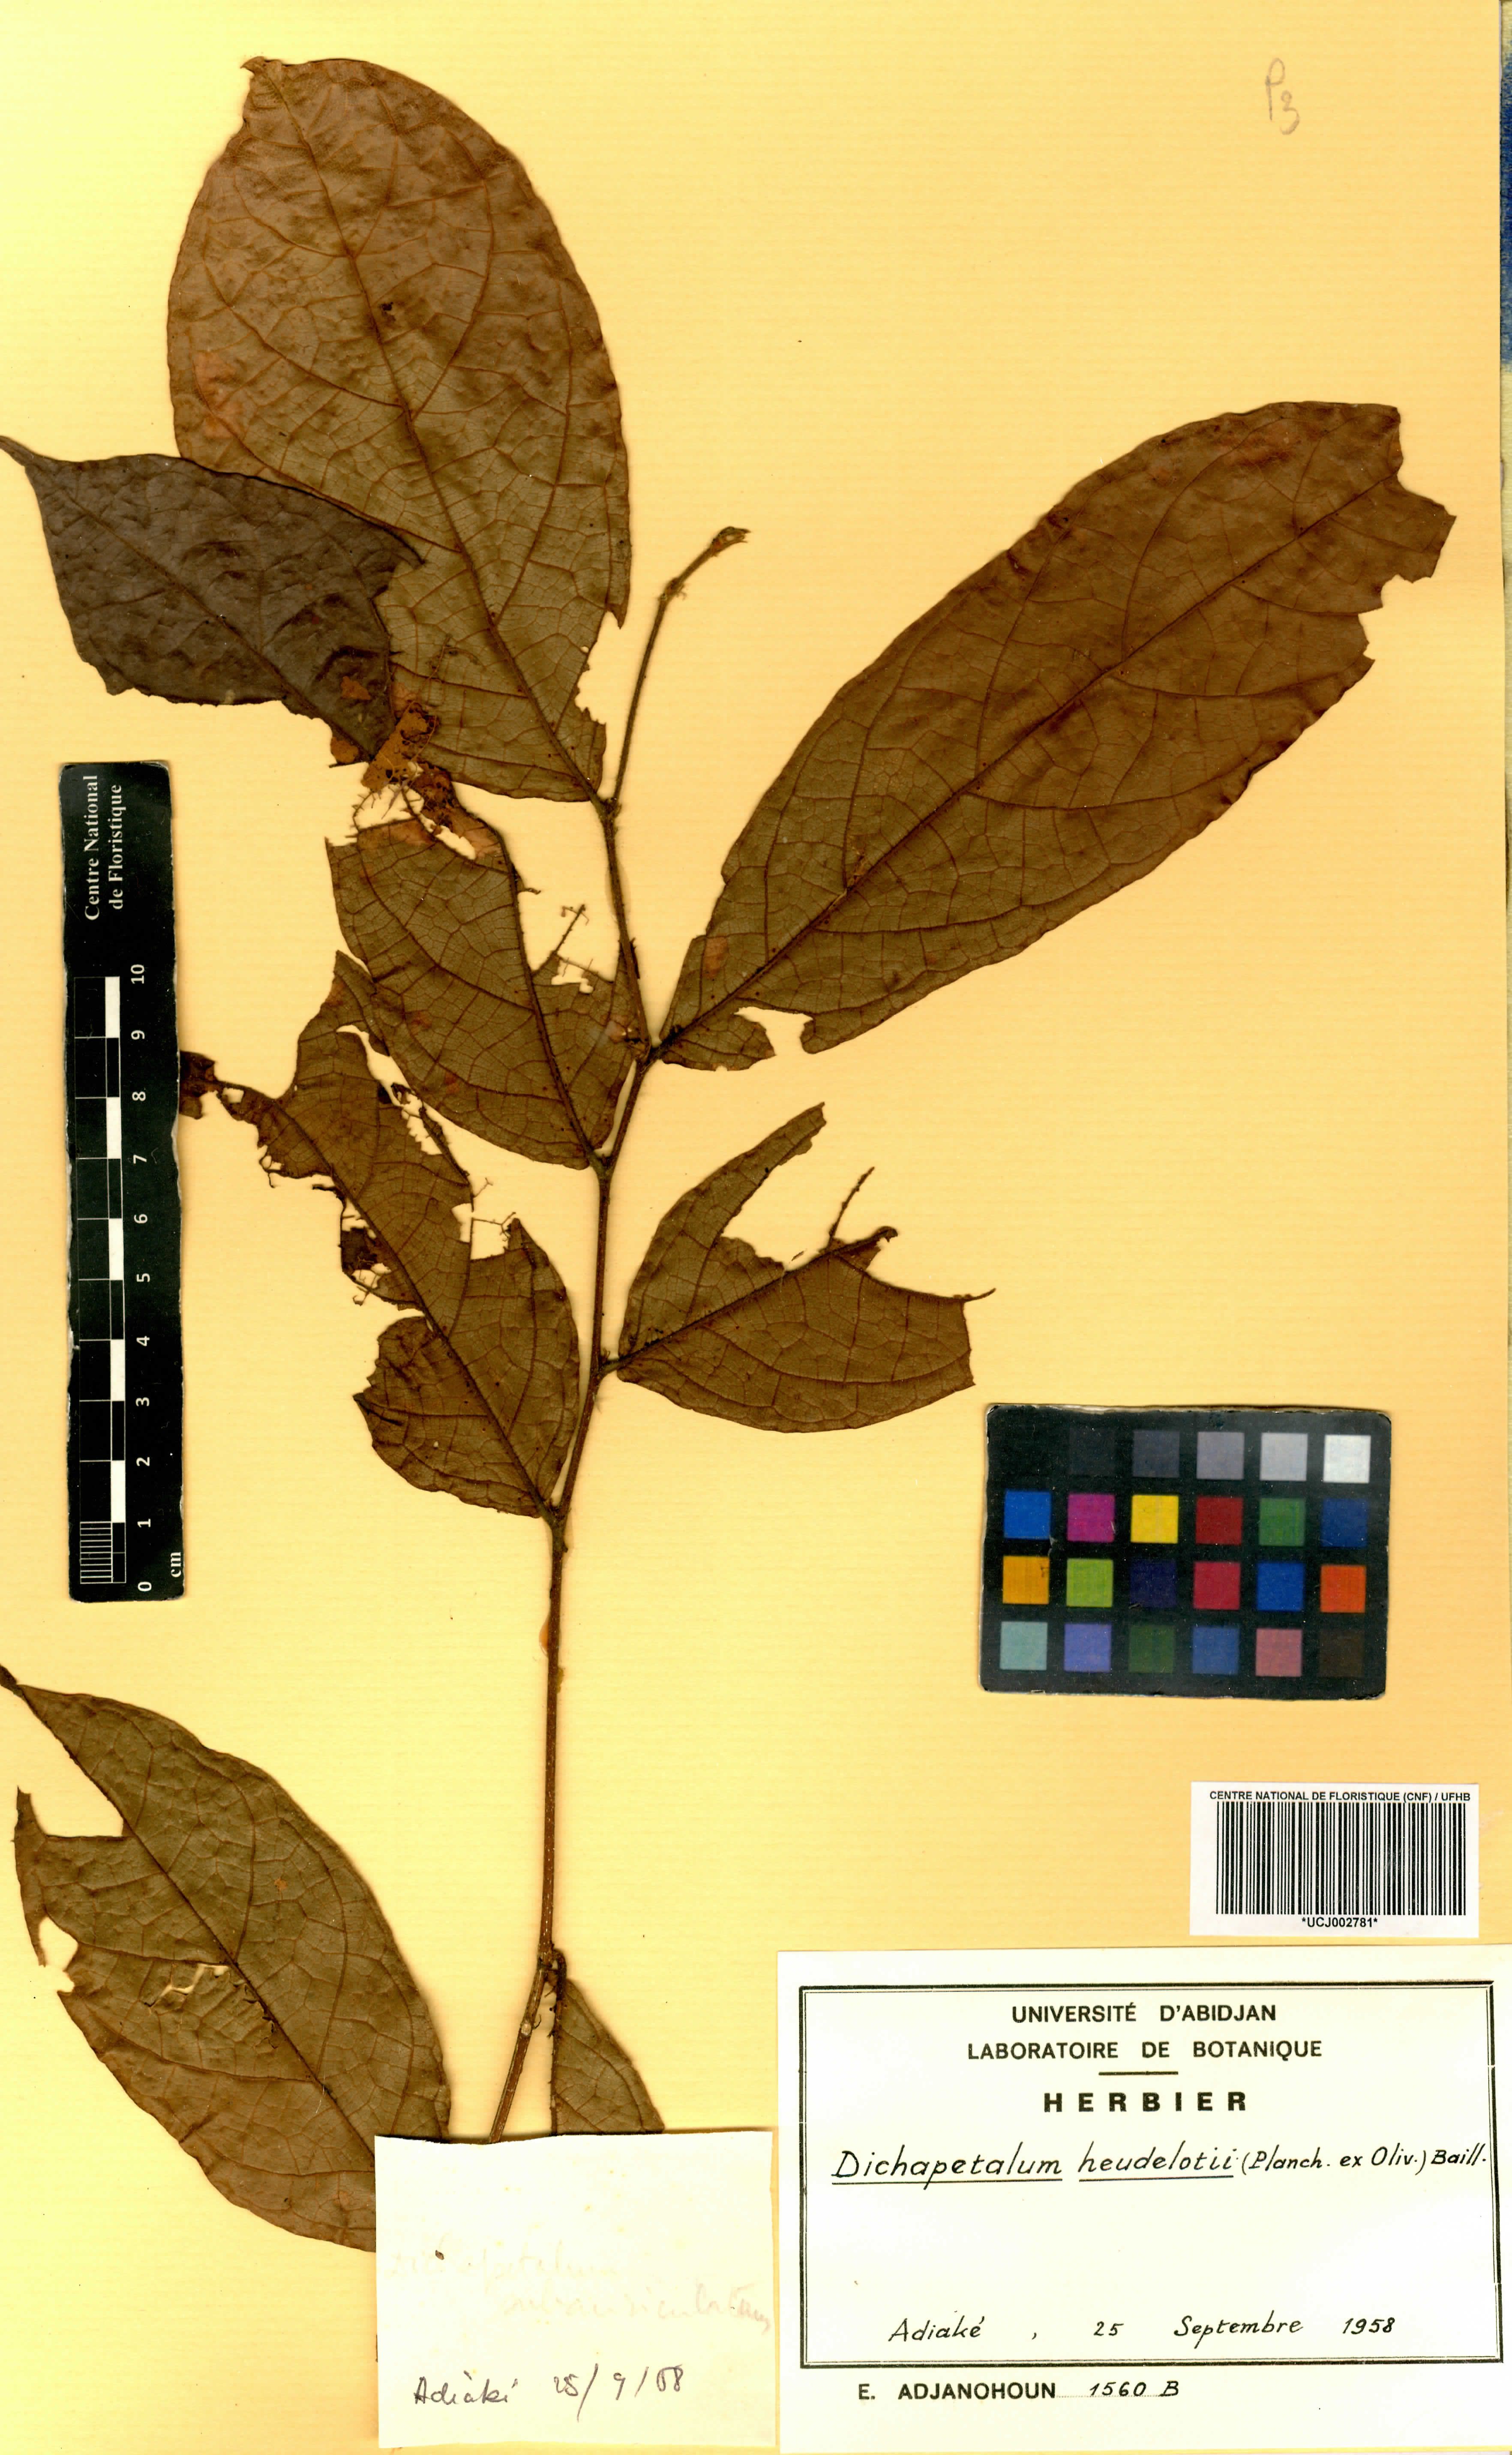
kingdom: Plantae
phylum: Tracheophyta
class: Magnoliopsida
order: Malpighiales
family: Dichapetalaceae
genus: Dichapetalum
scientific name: Dichapetalum heudelotii
